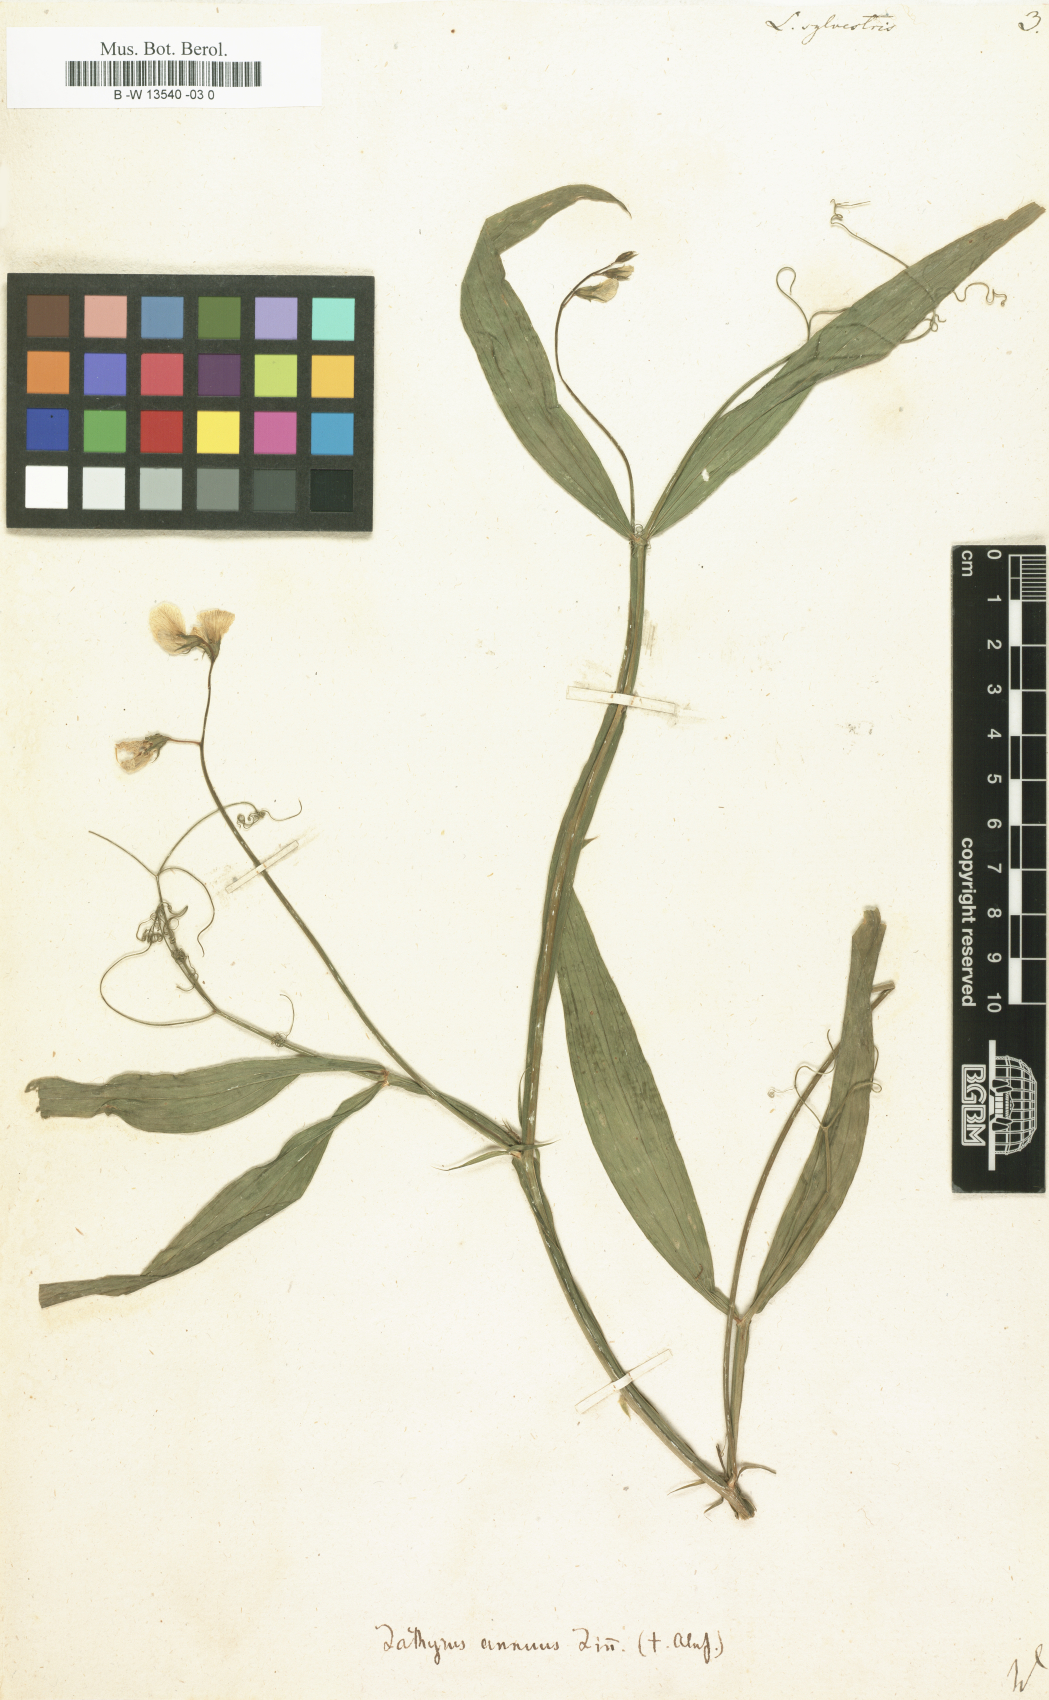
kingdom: Plantae
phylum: Tracheophyta
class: Magnoliopsida
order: Fabales
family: Fabaceae
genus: Lathyrus
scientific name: Lathyrus sylvestris
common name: Flat pea
